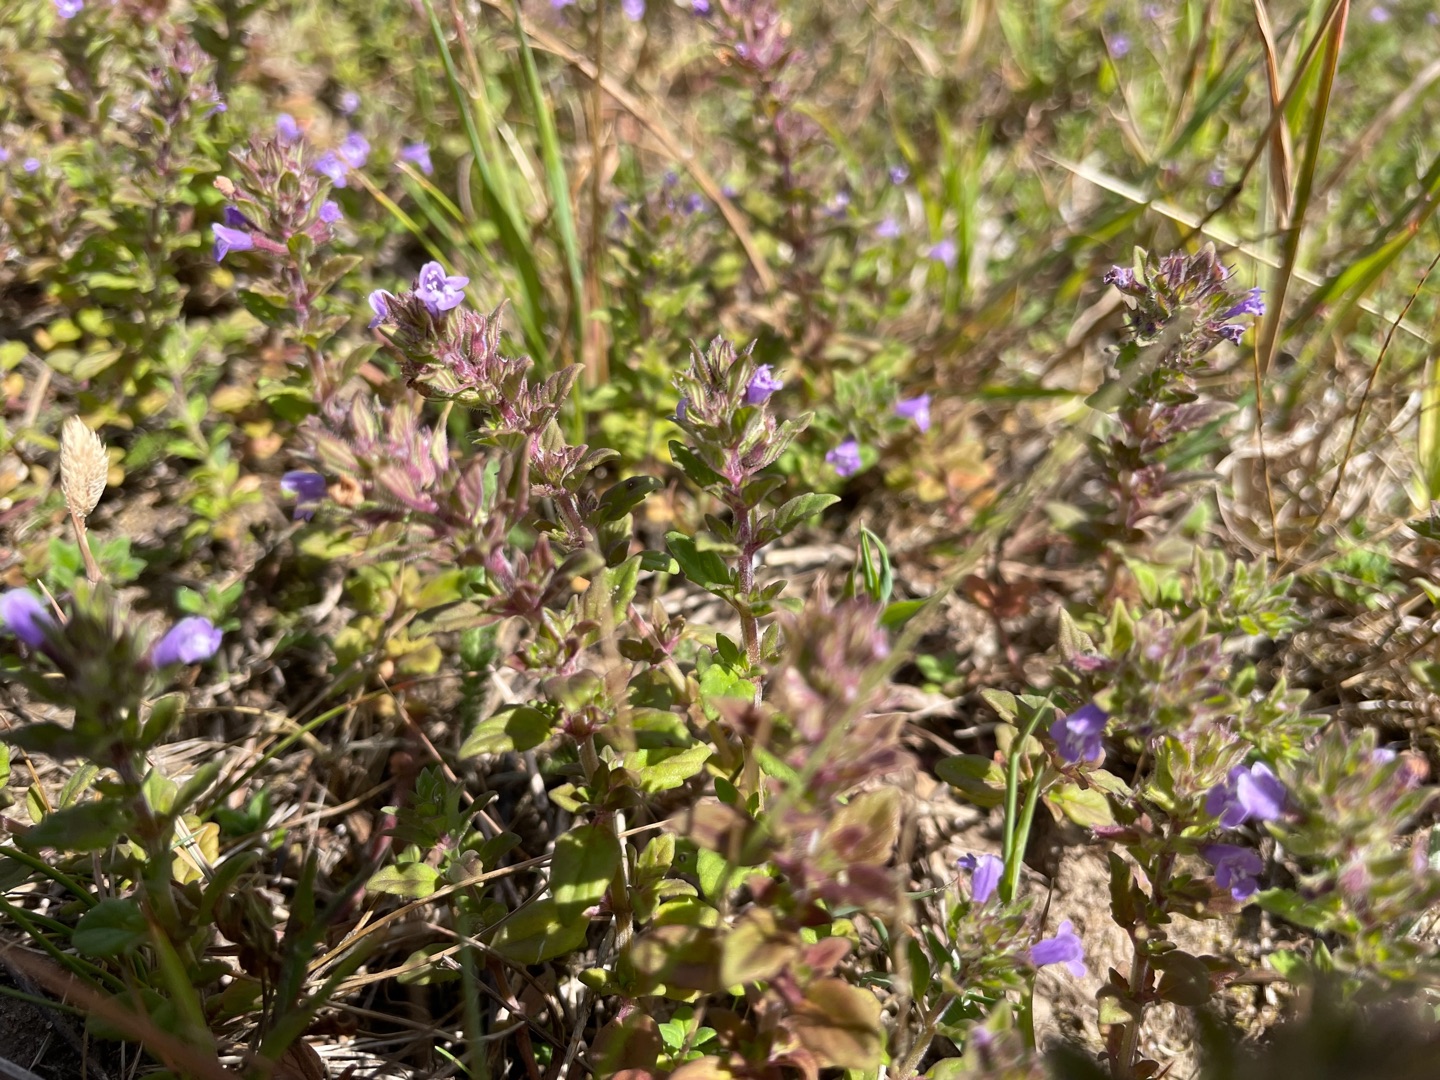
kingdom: Plantae
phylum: Tracheophyta
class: Magnoliopsida
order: Lamiales
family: Lamiaceae
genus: Clinopodium
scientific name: Clinopodium acinos
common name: Voldtimian
